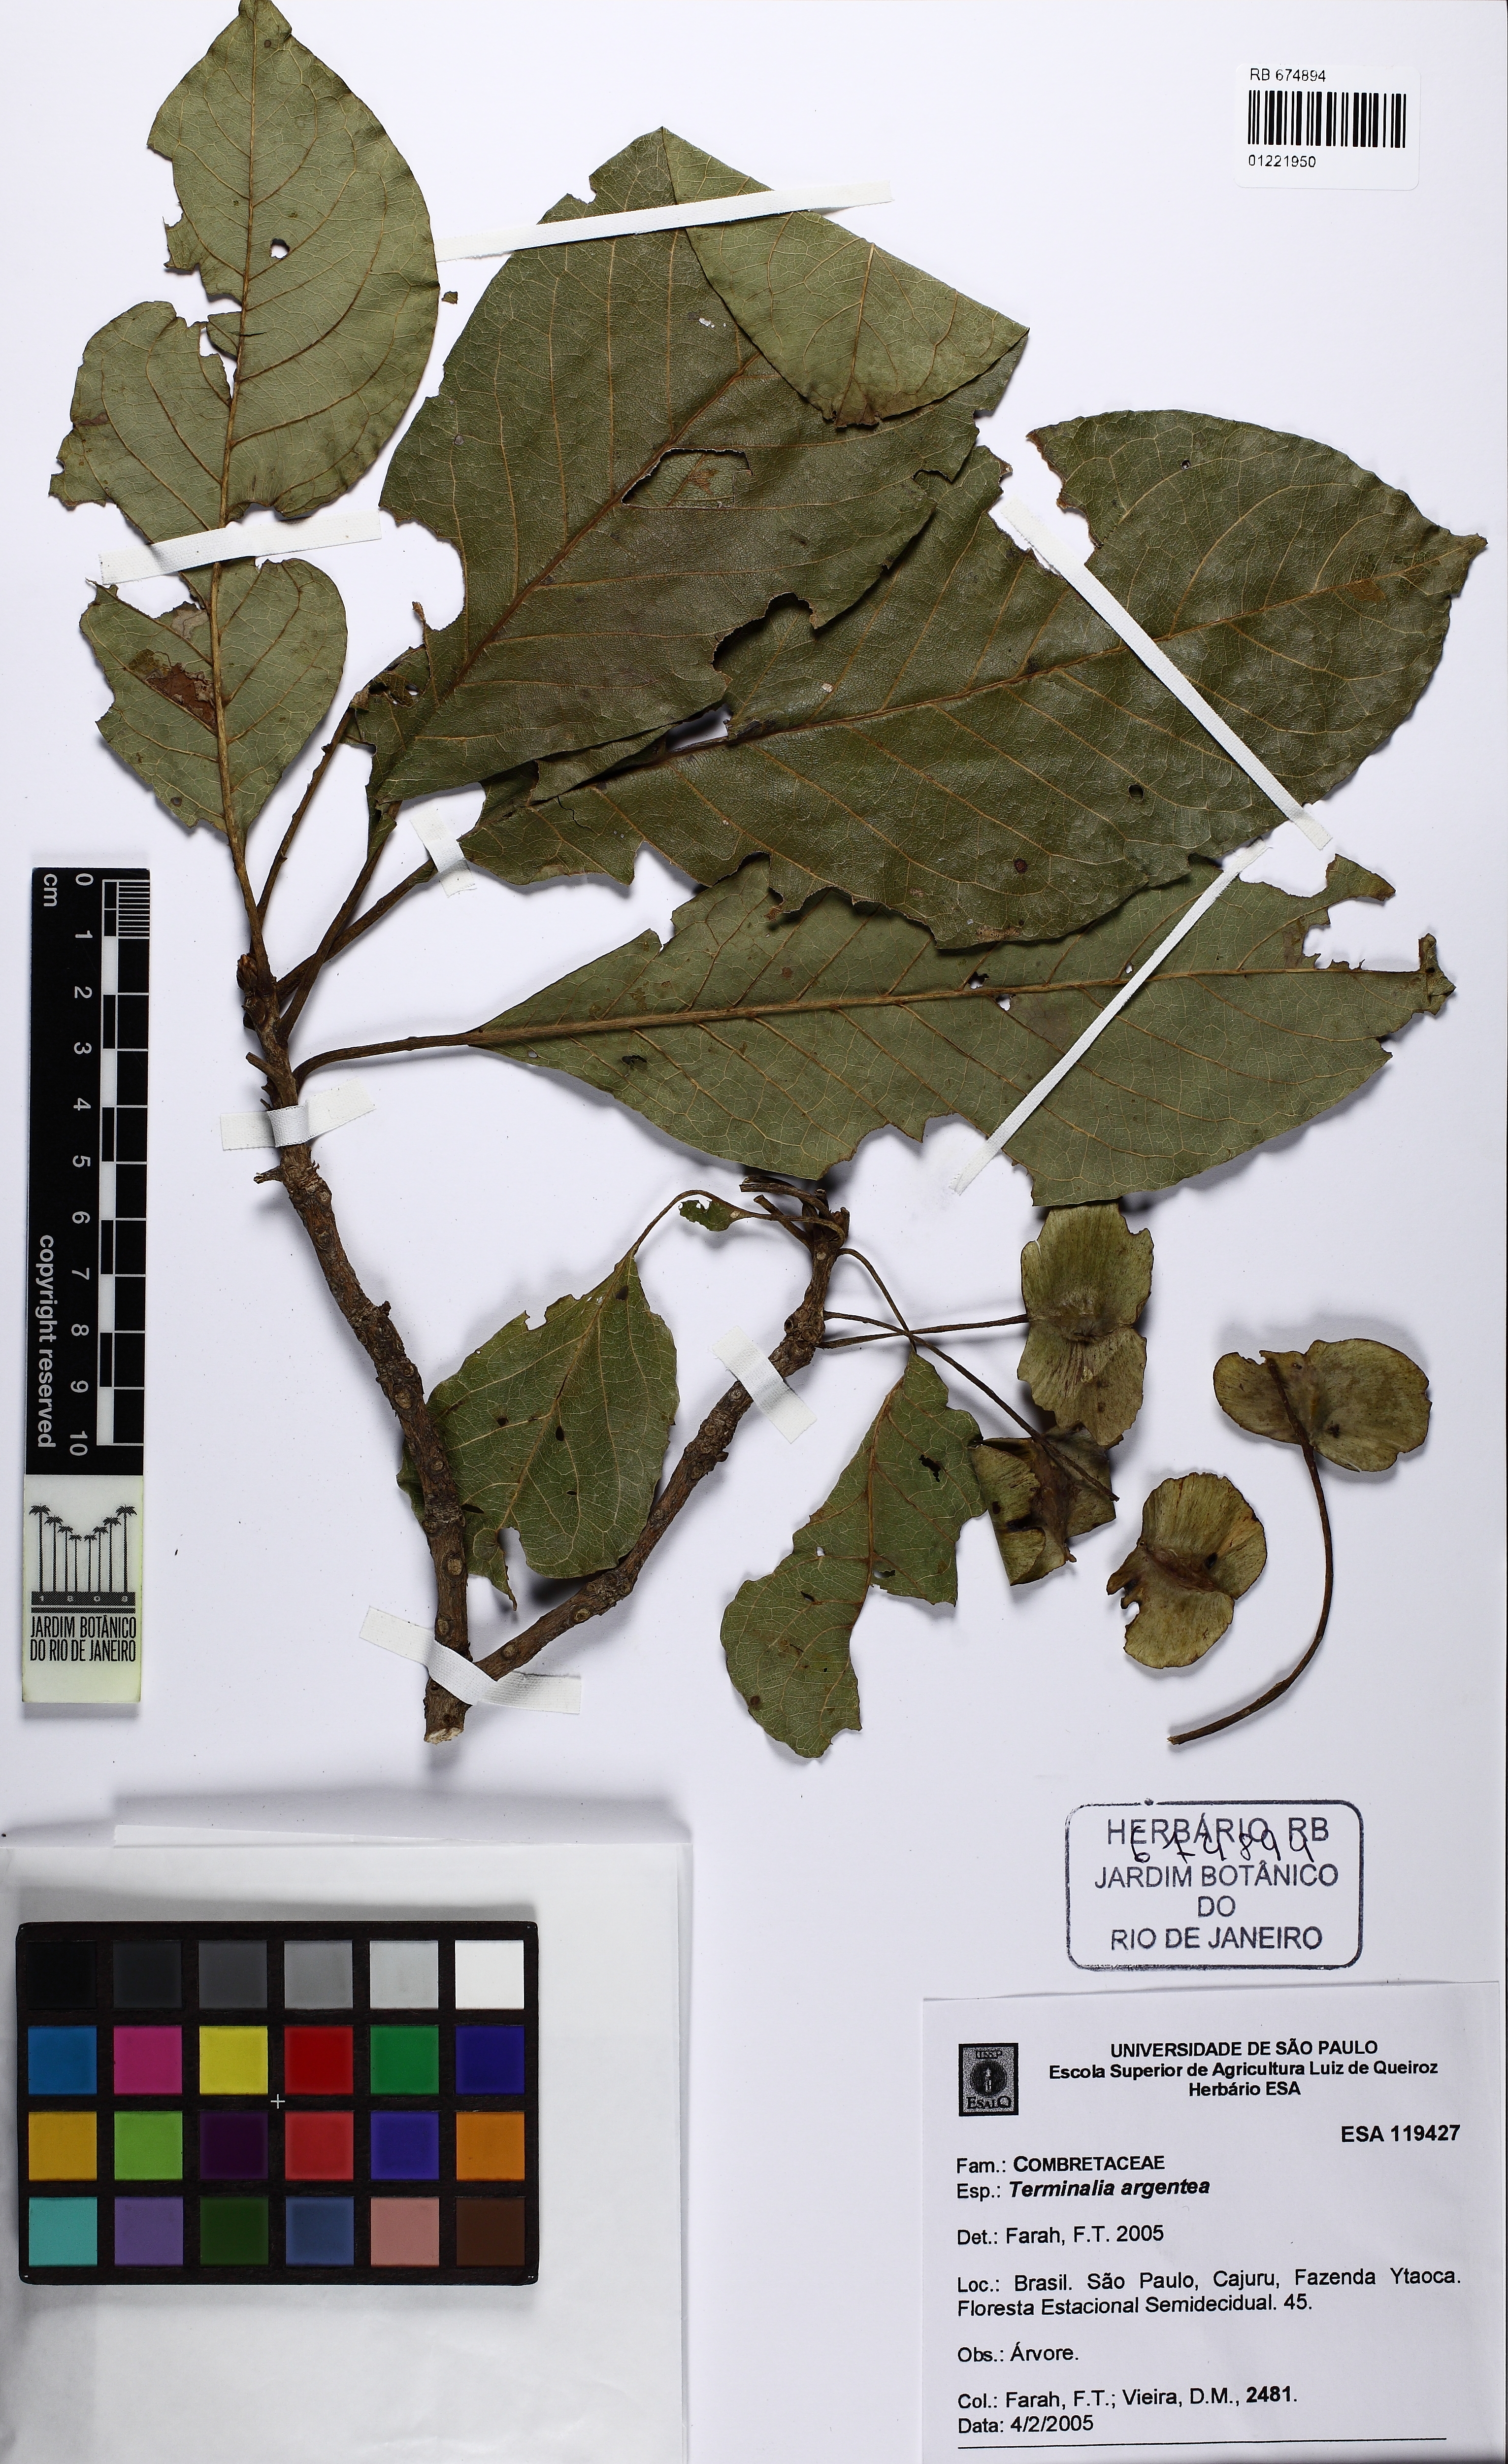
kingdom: Plantae
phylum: Tracheophyta
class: Magnoliopsida
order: Myrtales
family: Combretaceae
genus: Terminalia
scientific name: Terminalia argentea
